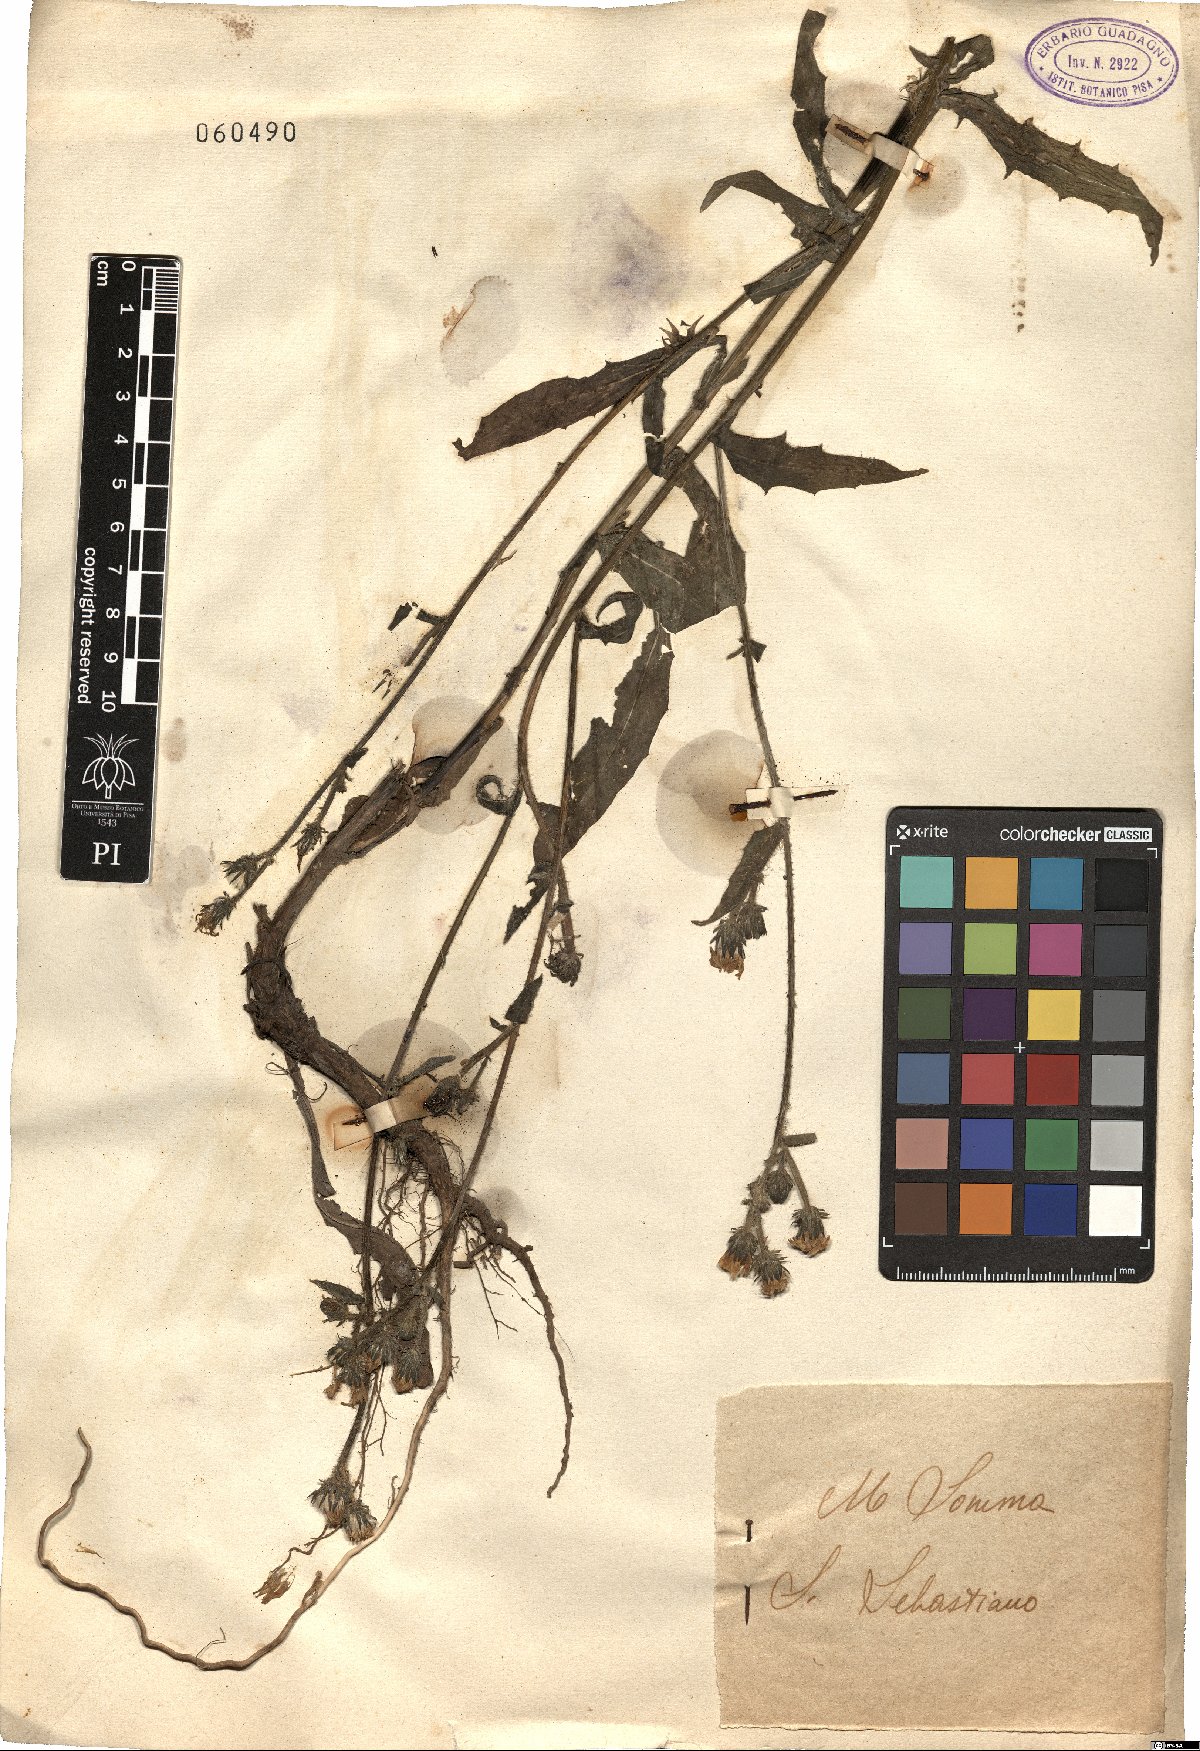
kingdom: Plantae
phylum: Tracheophyta
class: Magnoliopsida
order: Asterales
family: Asteraceae
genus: Picris
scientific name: Picris hieracioides
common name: Hawkweed oxtongue
